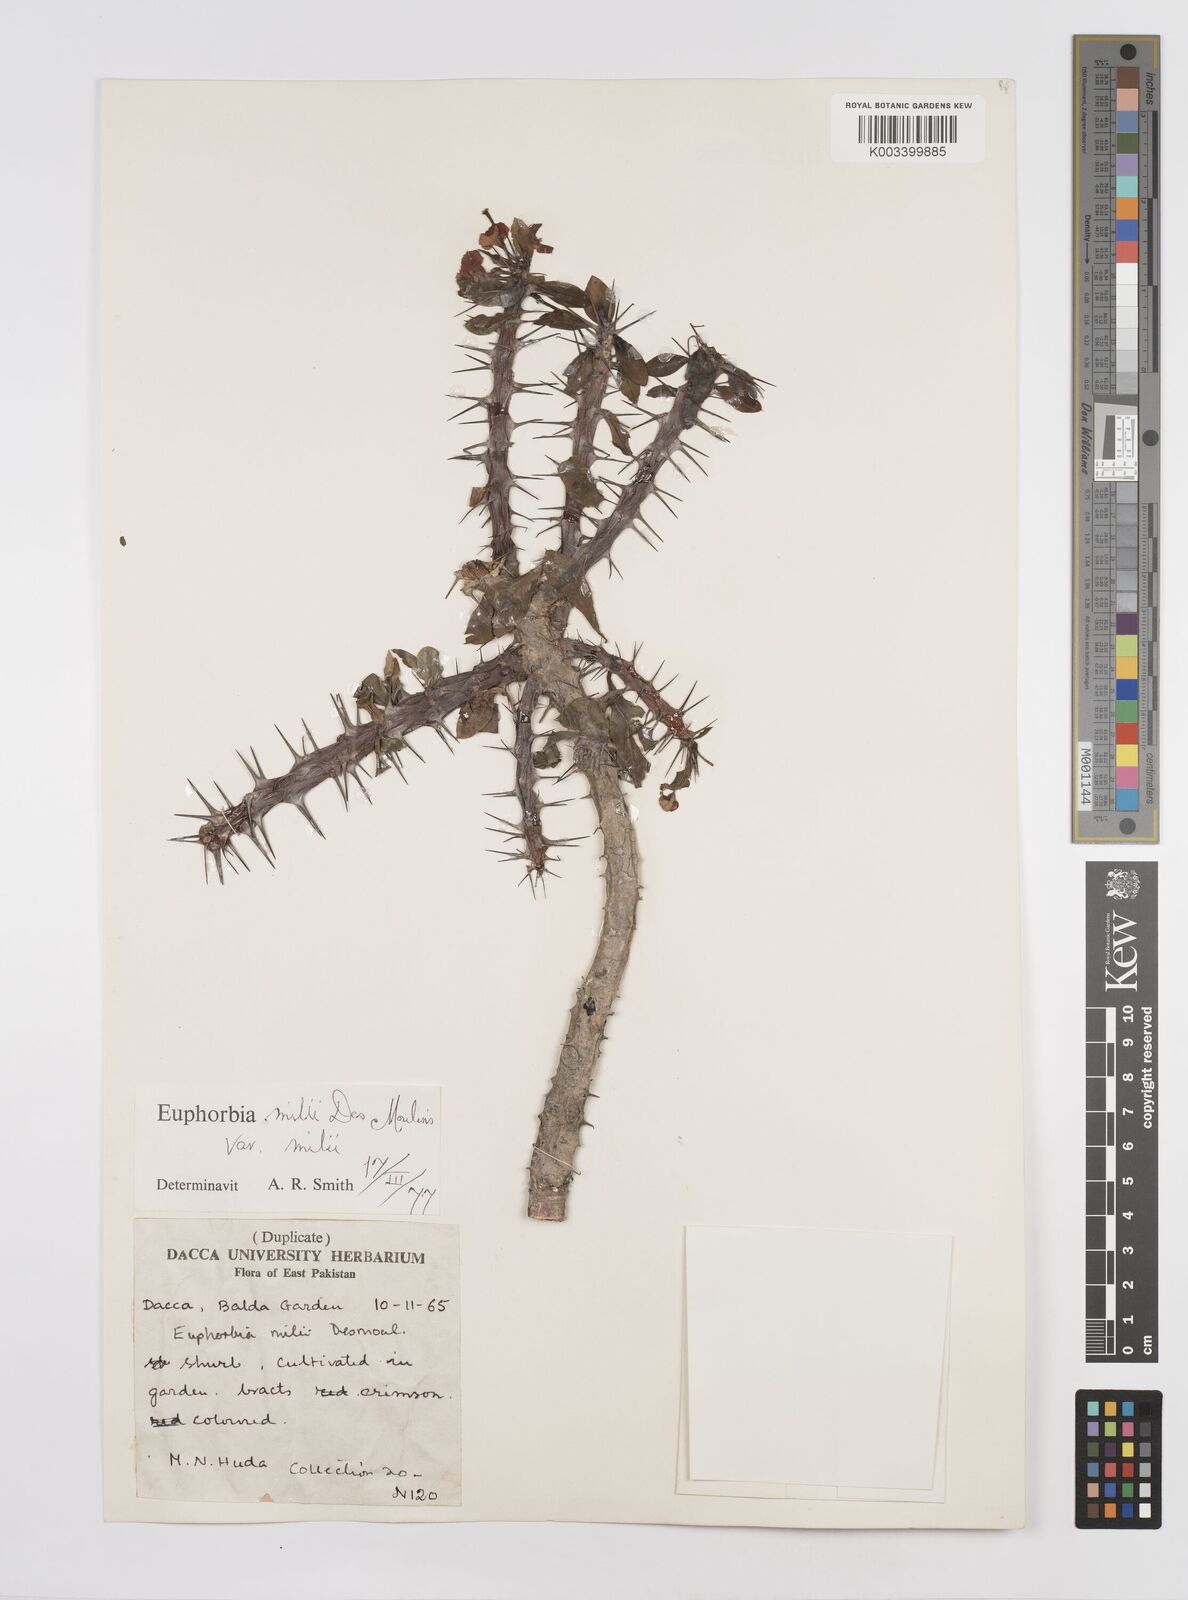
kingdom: Plantae
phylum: Tracheophyta
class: Magnoliopsida
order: Malpighiales
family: Euphorbiaceae
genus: Euphorbia
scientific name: Euphorbia milii
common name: Christplant
